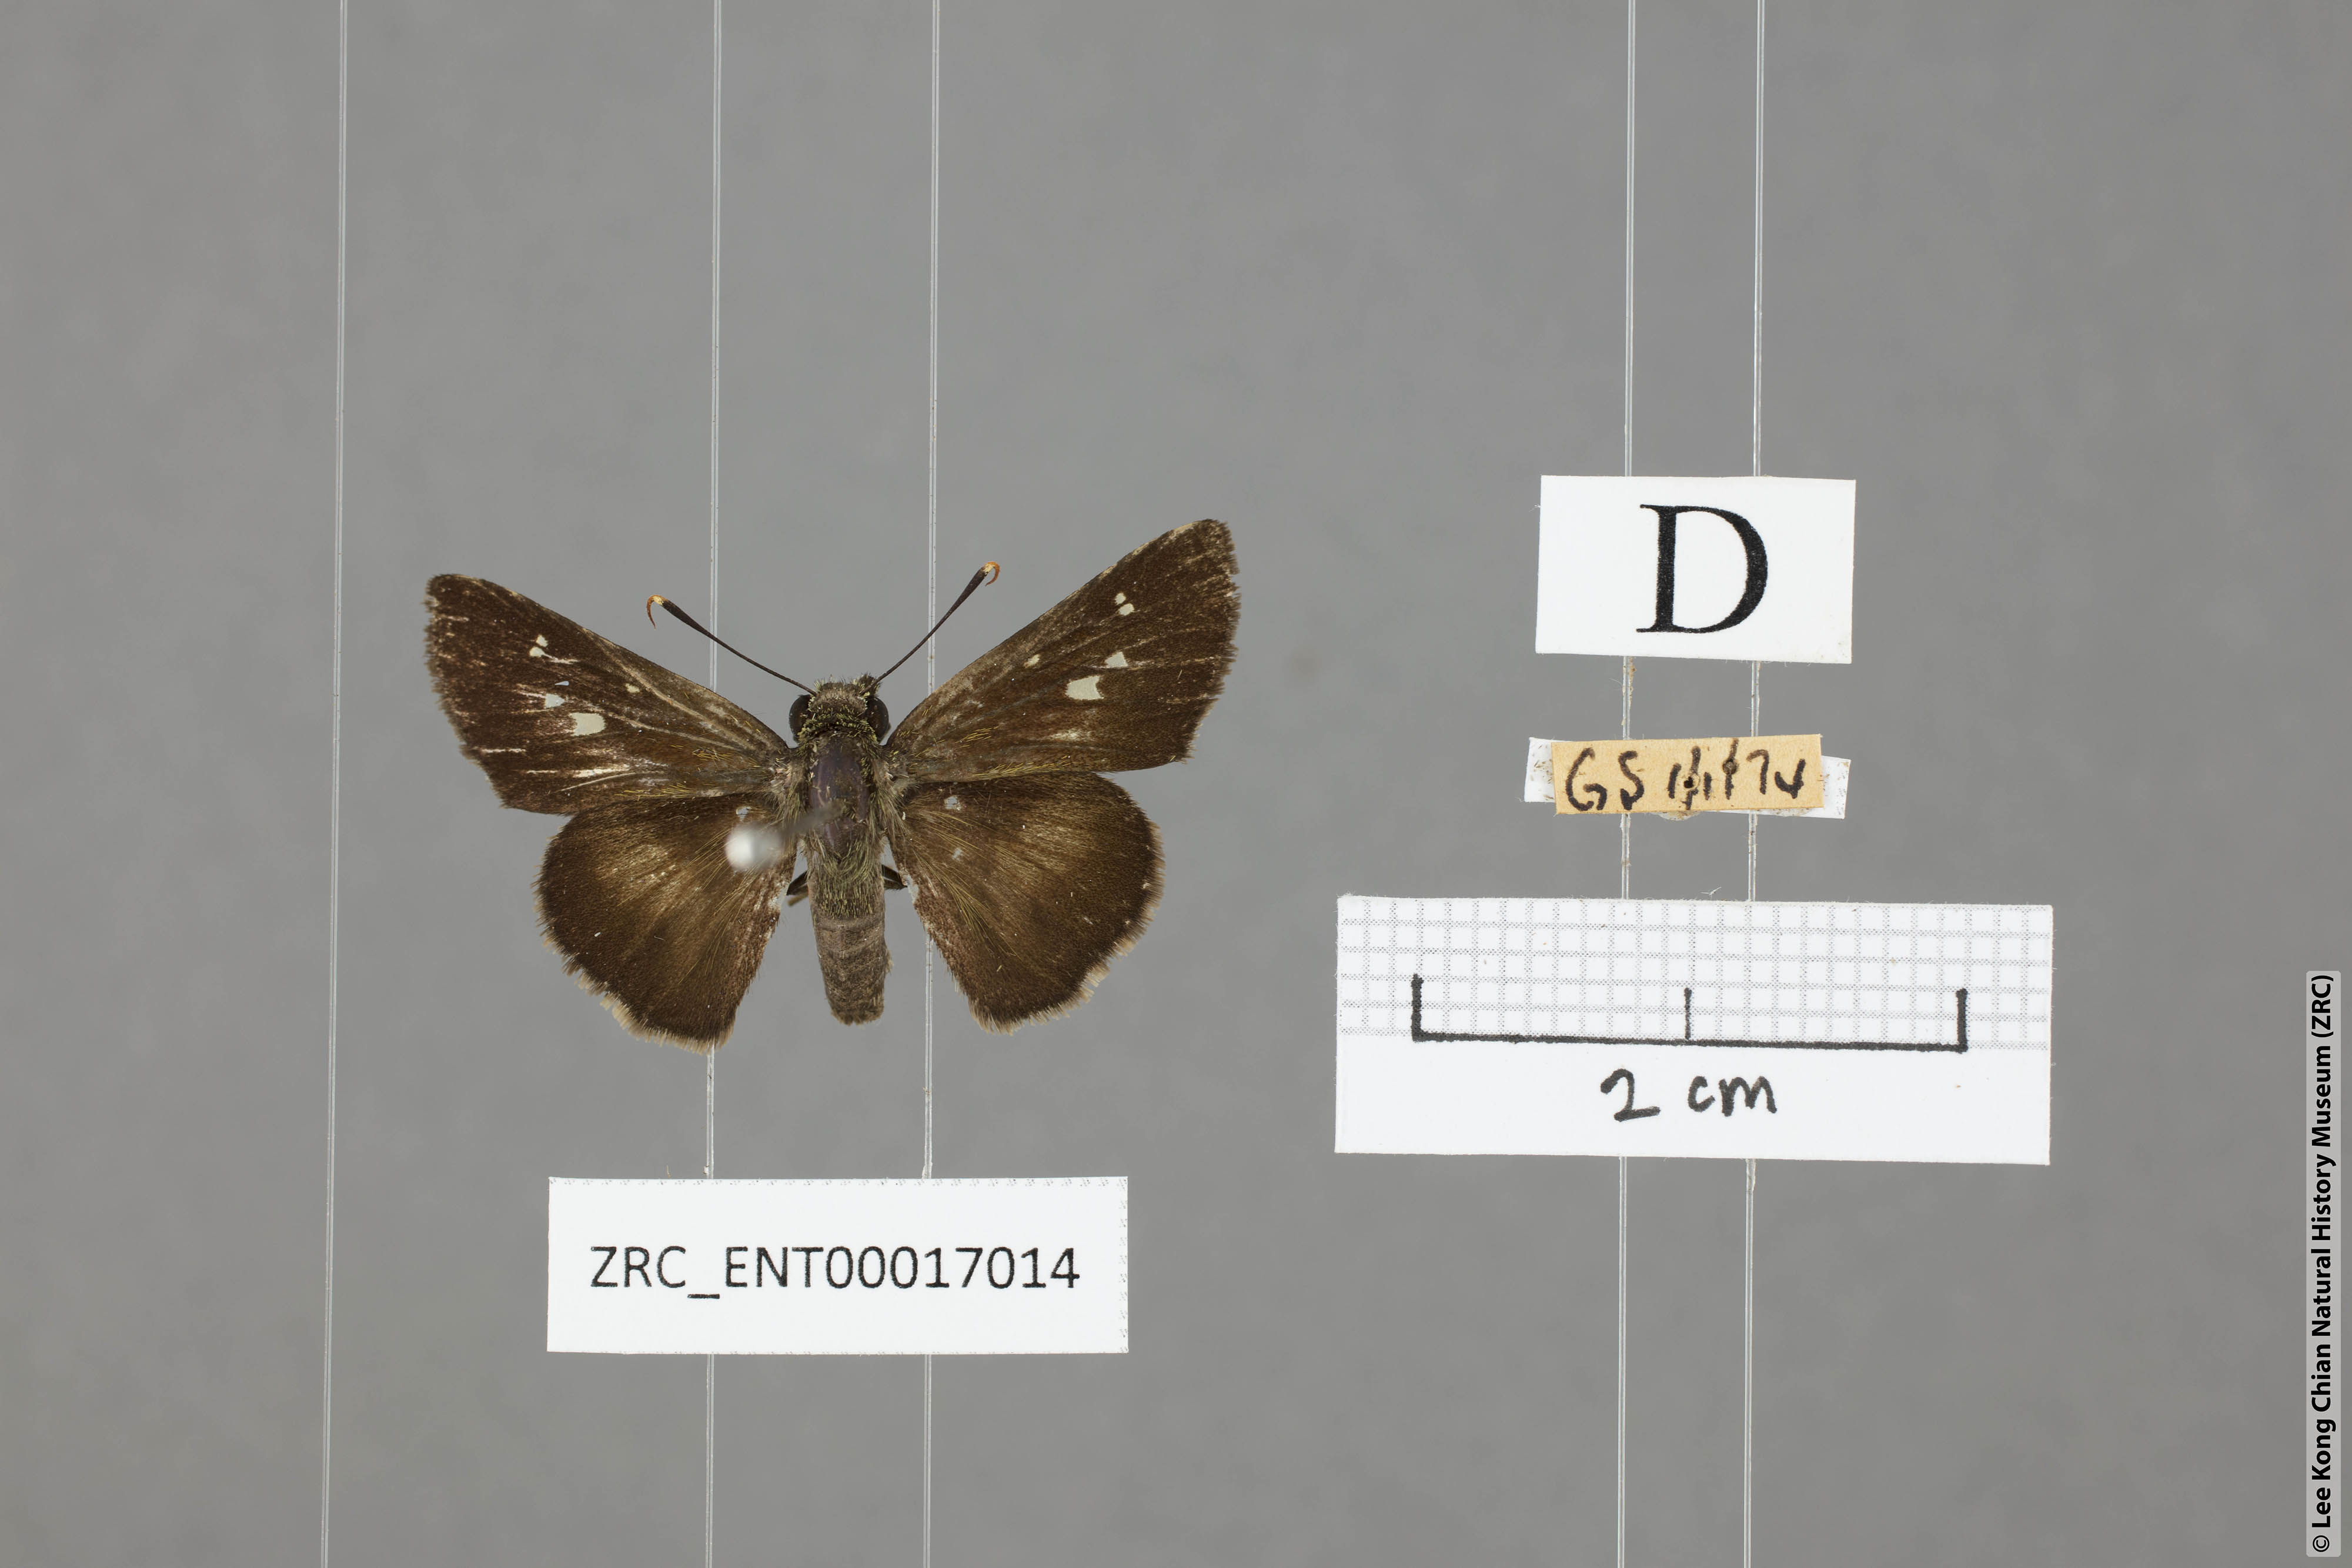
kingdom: Animalia
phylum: Arthropoda
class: Insecta
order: Lepidoptera
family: Hesperiidae
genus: Halpe
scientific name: Halpe
